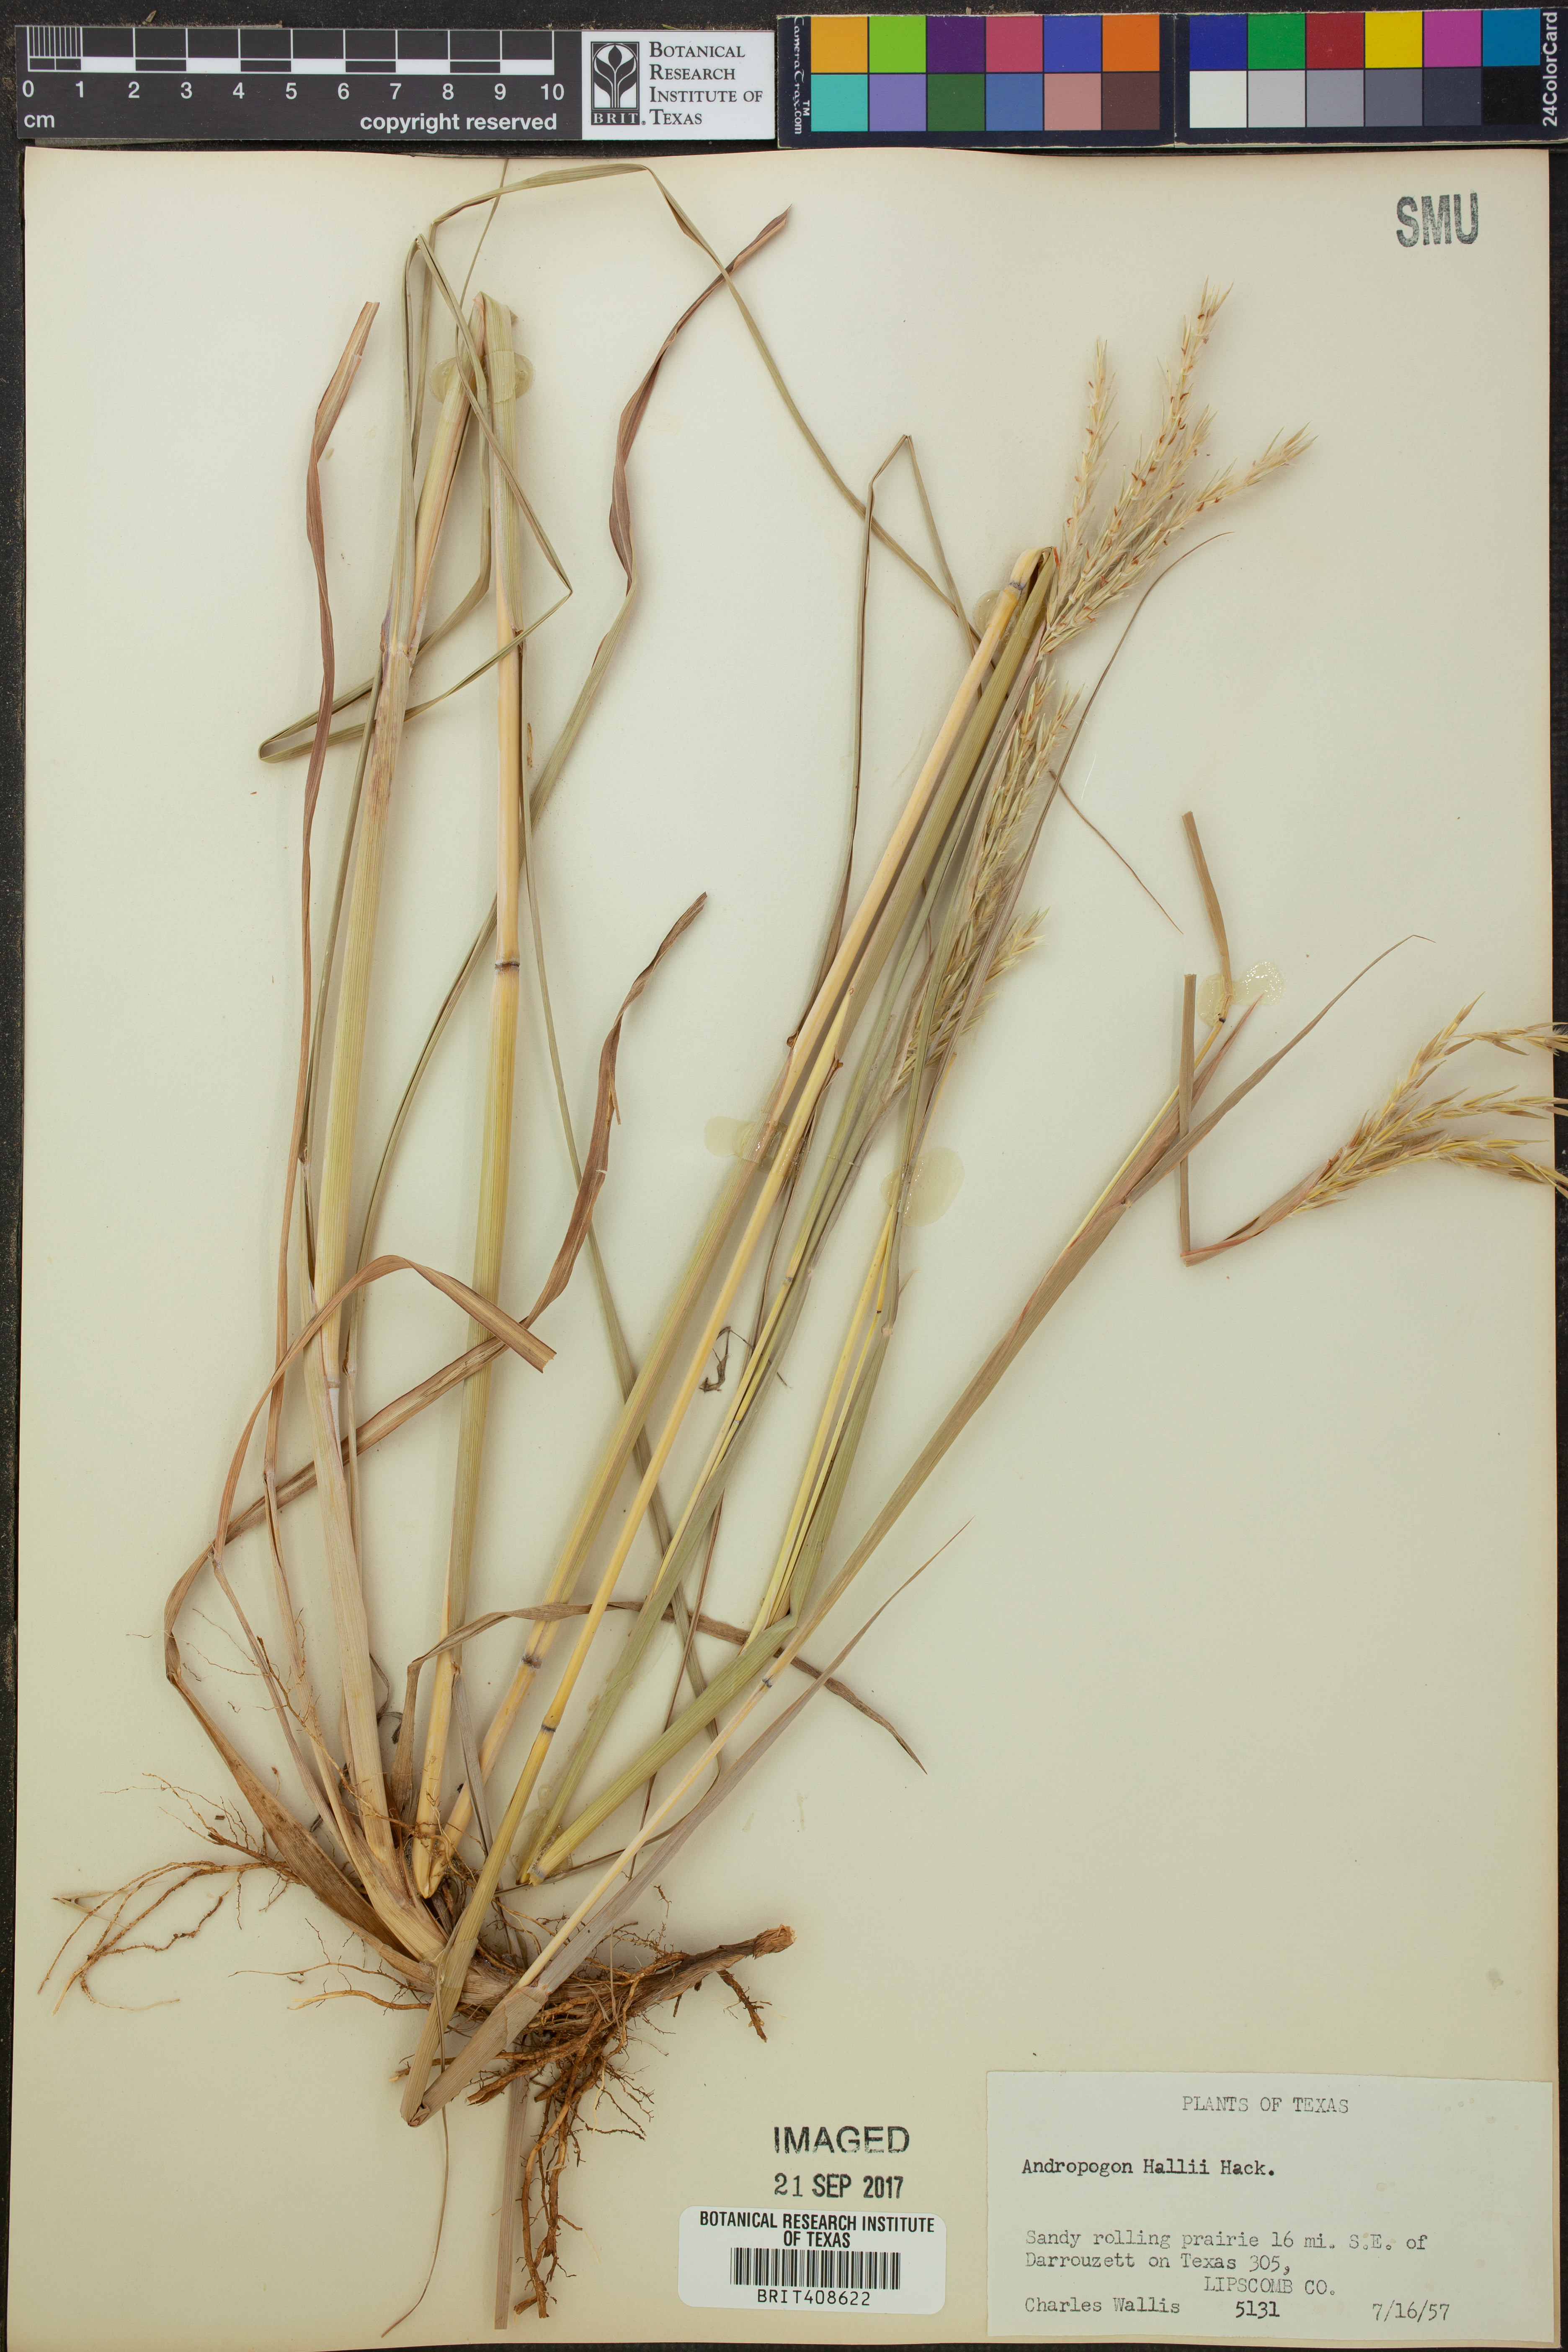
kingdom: Plantae
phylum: Tracheophyta
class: Liliopsida
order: Poales
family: Poaceae
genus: Andropogon
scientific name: Andropogon hallii
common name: Sand bluestem
